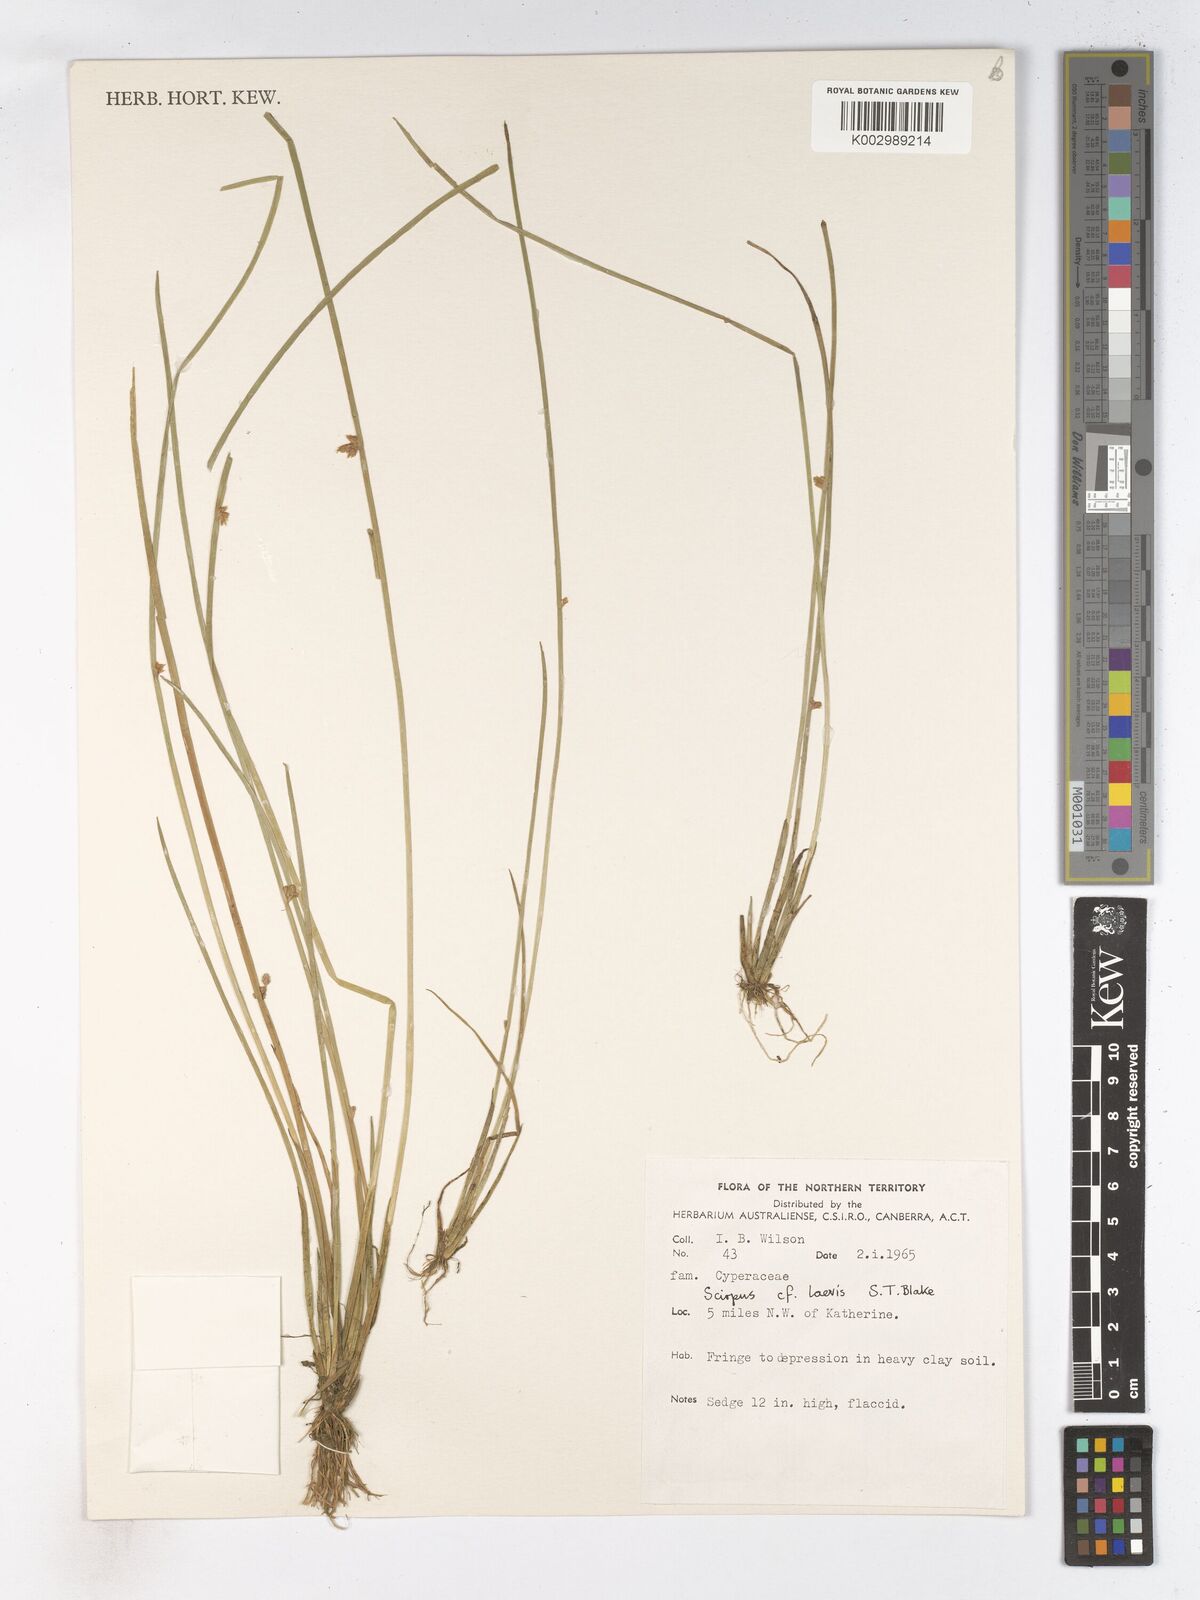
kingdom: Plantae
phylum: Tracheophyta
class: Liliopsida
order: Poales
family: Cyperaceae
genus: Schoenoplectiella
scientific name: Schoenoplectiella laevis
